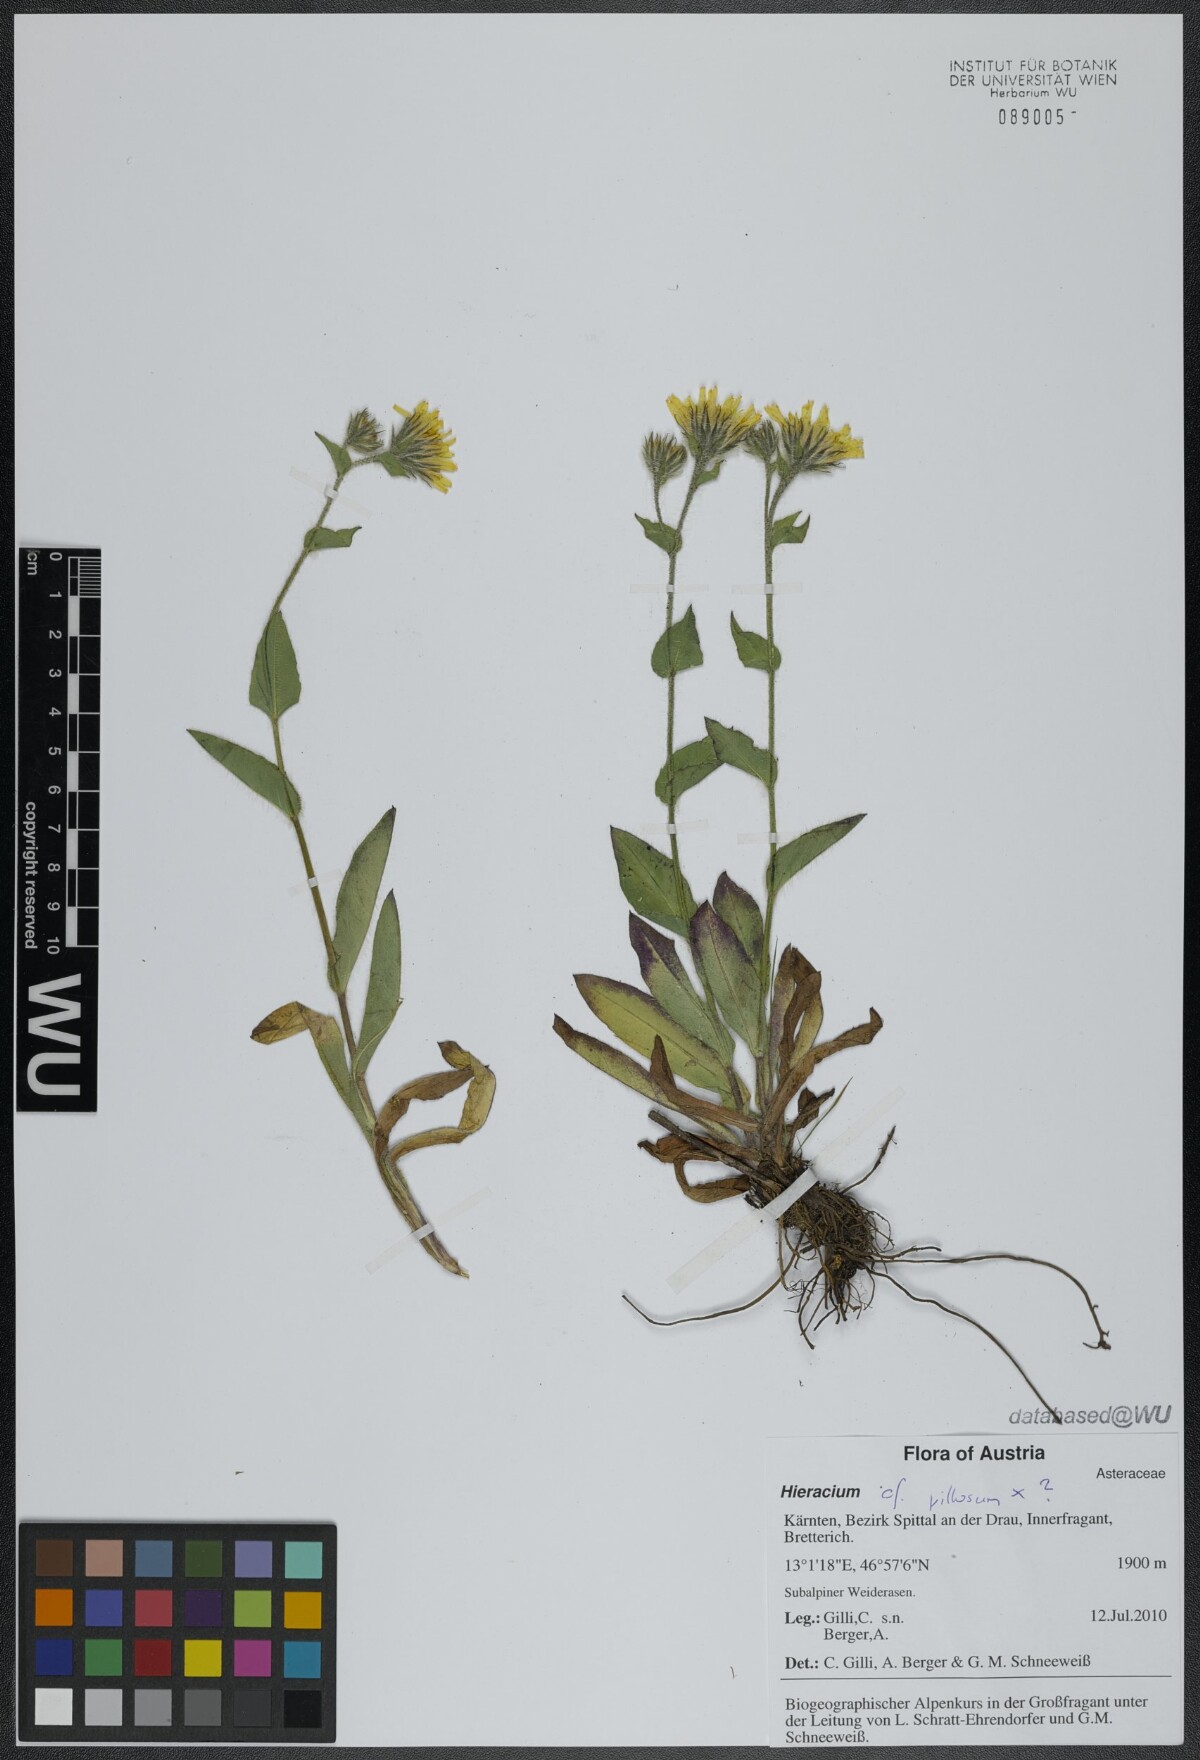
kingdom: Plantae
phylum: Tracheophyta
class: Magnoliopsida
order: Asterales
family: Asteraceae
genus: Hieracium
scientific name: Hieracium villosum
